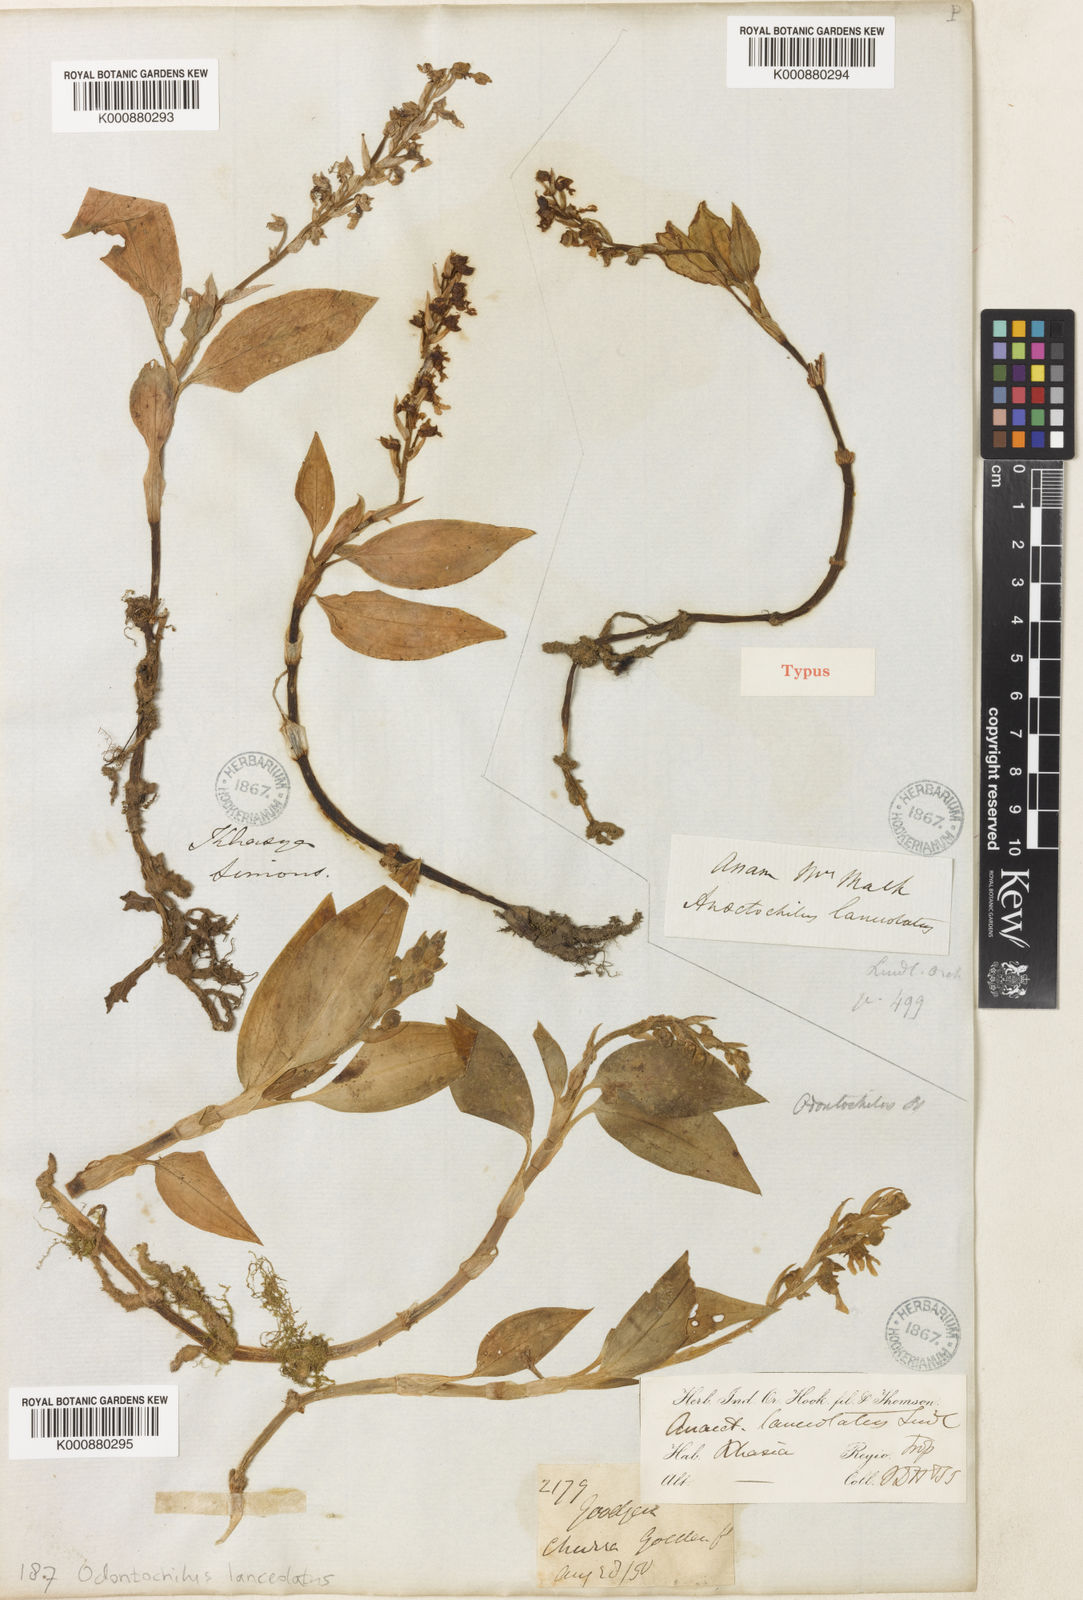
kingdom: Plantae
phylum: Tracheophyta
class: Liliopsida
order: Asparagales
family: Orchidaceae
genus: Odontochilus
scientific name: Odontochilus lanceolatus
